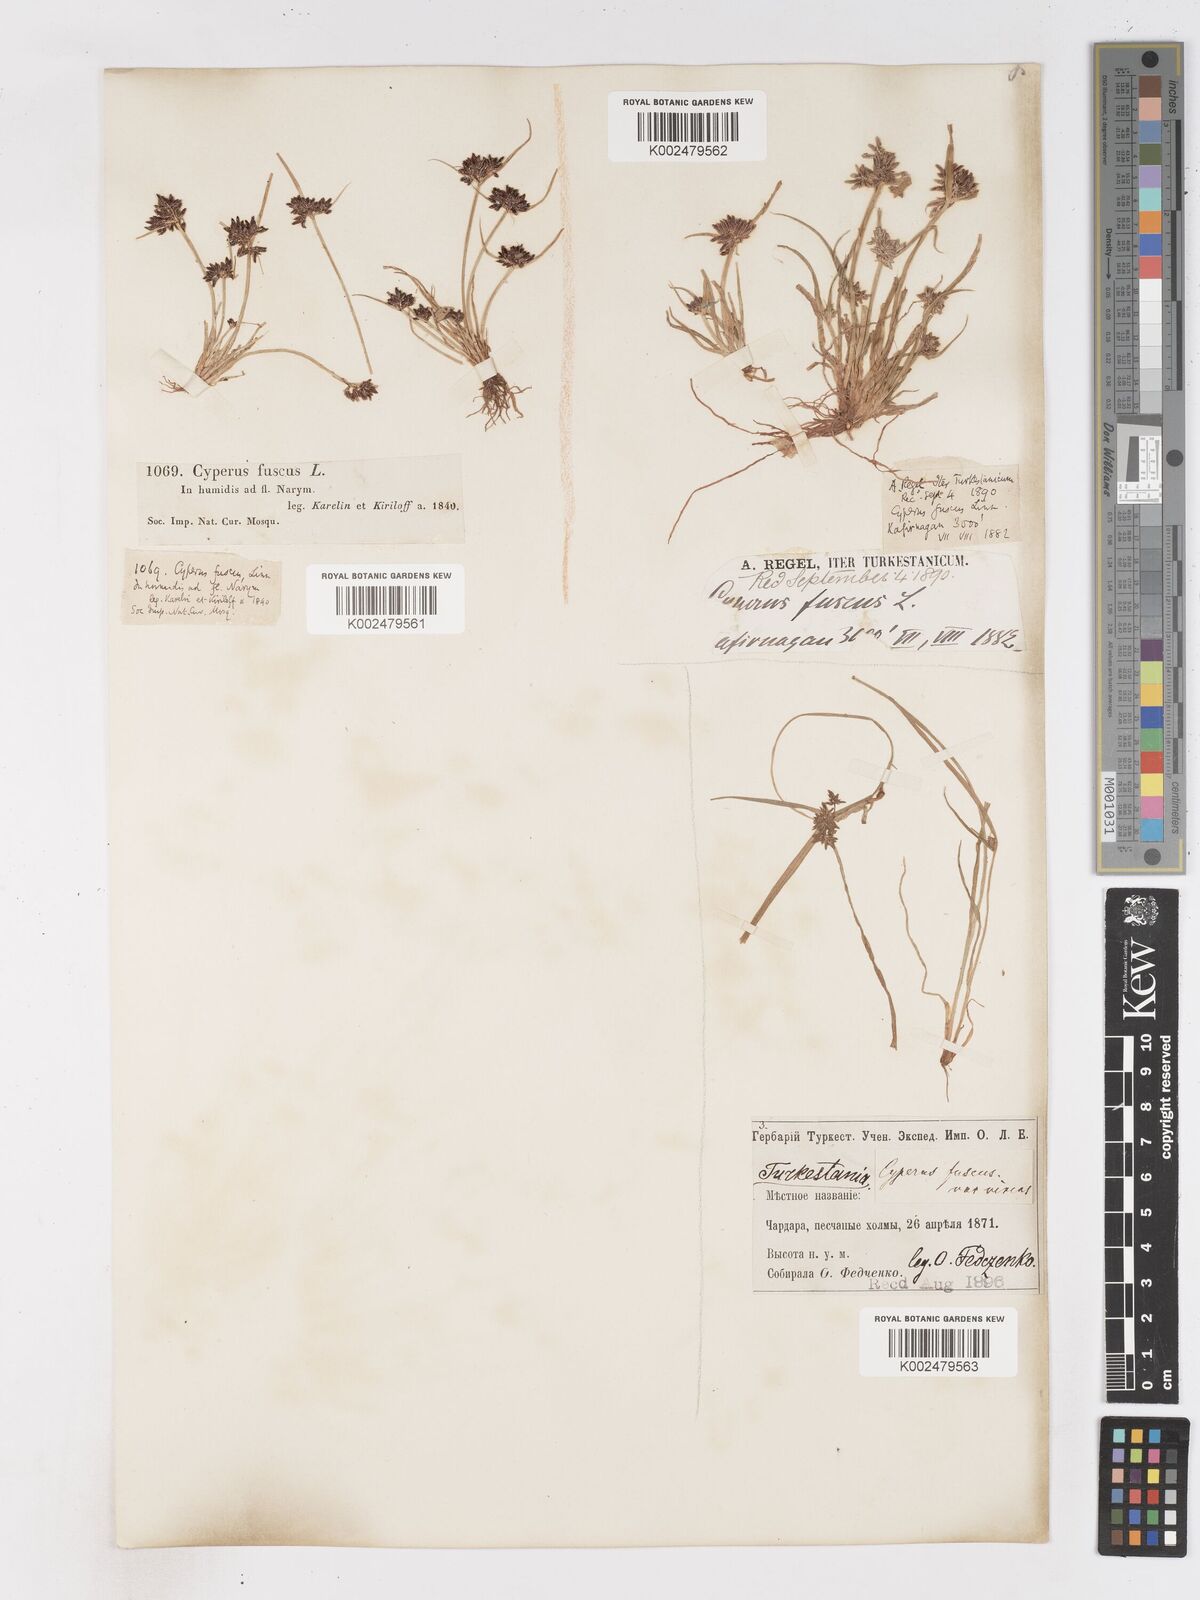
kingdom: Plantae
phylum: Tracheophyta
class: Liliopsida
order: Poales
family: Cyperaceae
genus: Cyperus
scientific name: Cyperus fuscus
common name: Brown galingale
